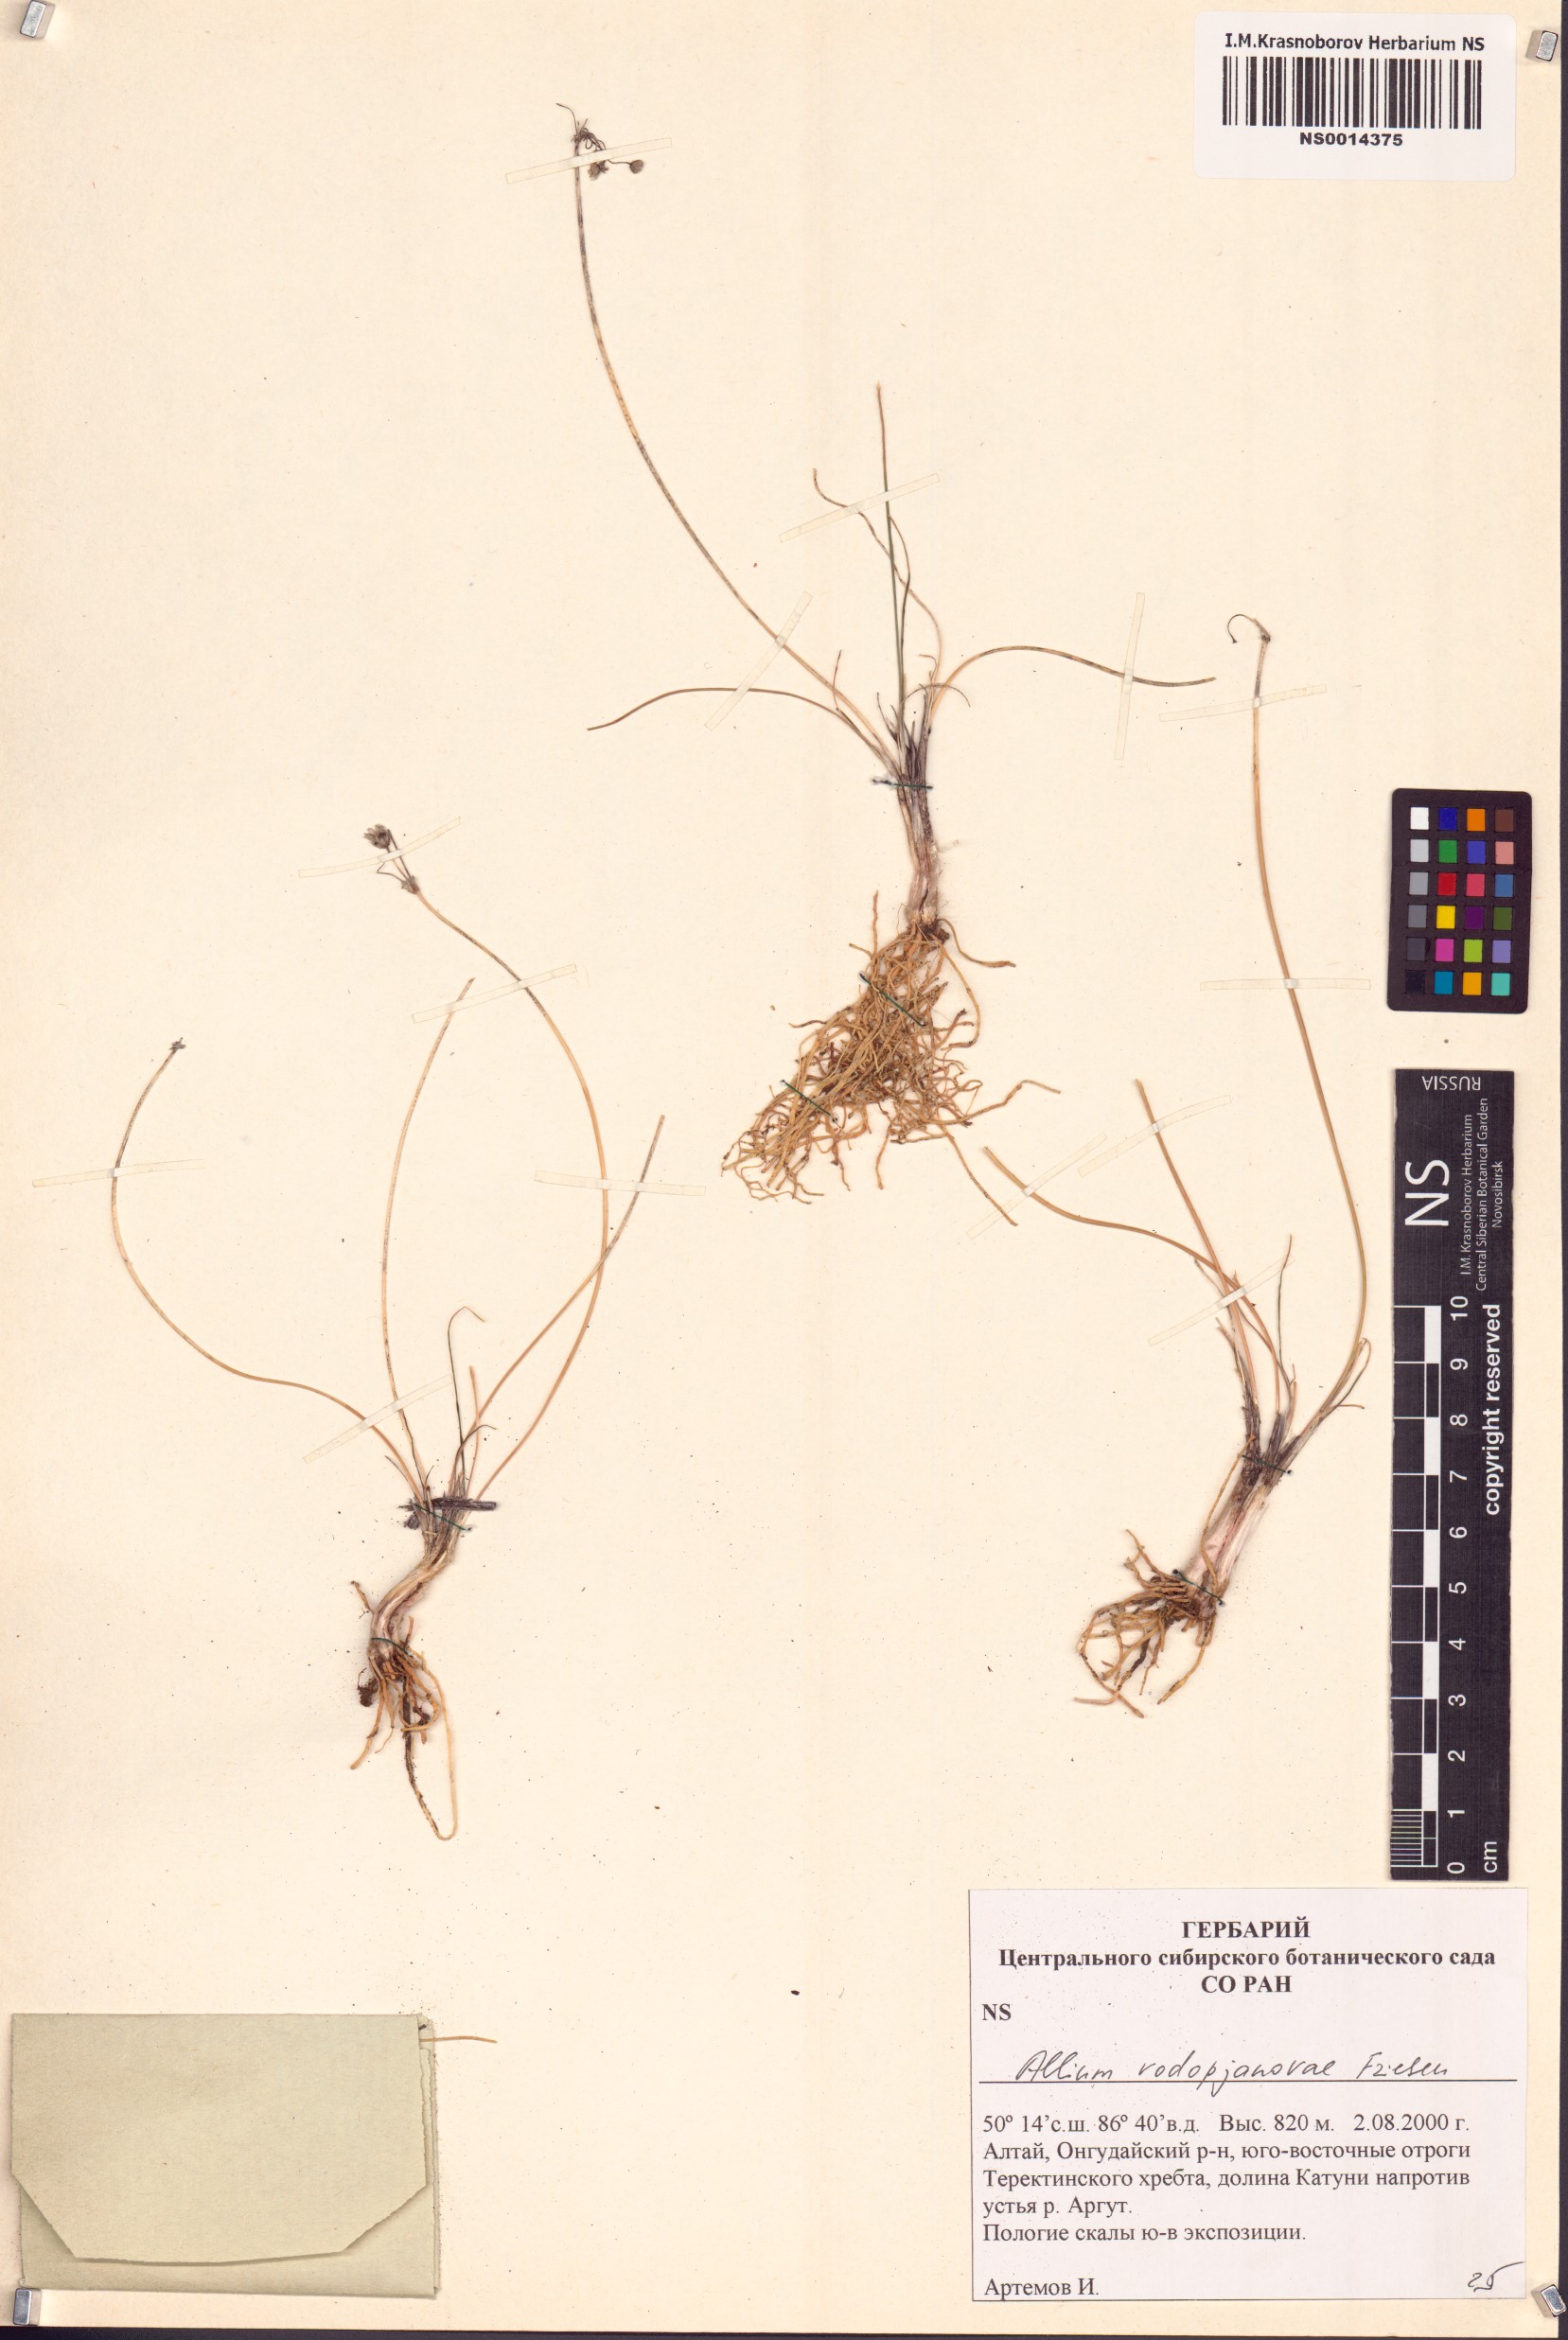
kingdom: Plantae
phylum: Tracheophyta
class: Liliopsida
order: Asparagales
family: Amaryllidaceae
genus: Allium
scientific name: Allium vodopjanovae
